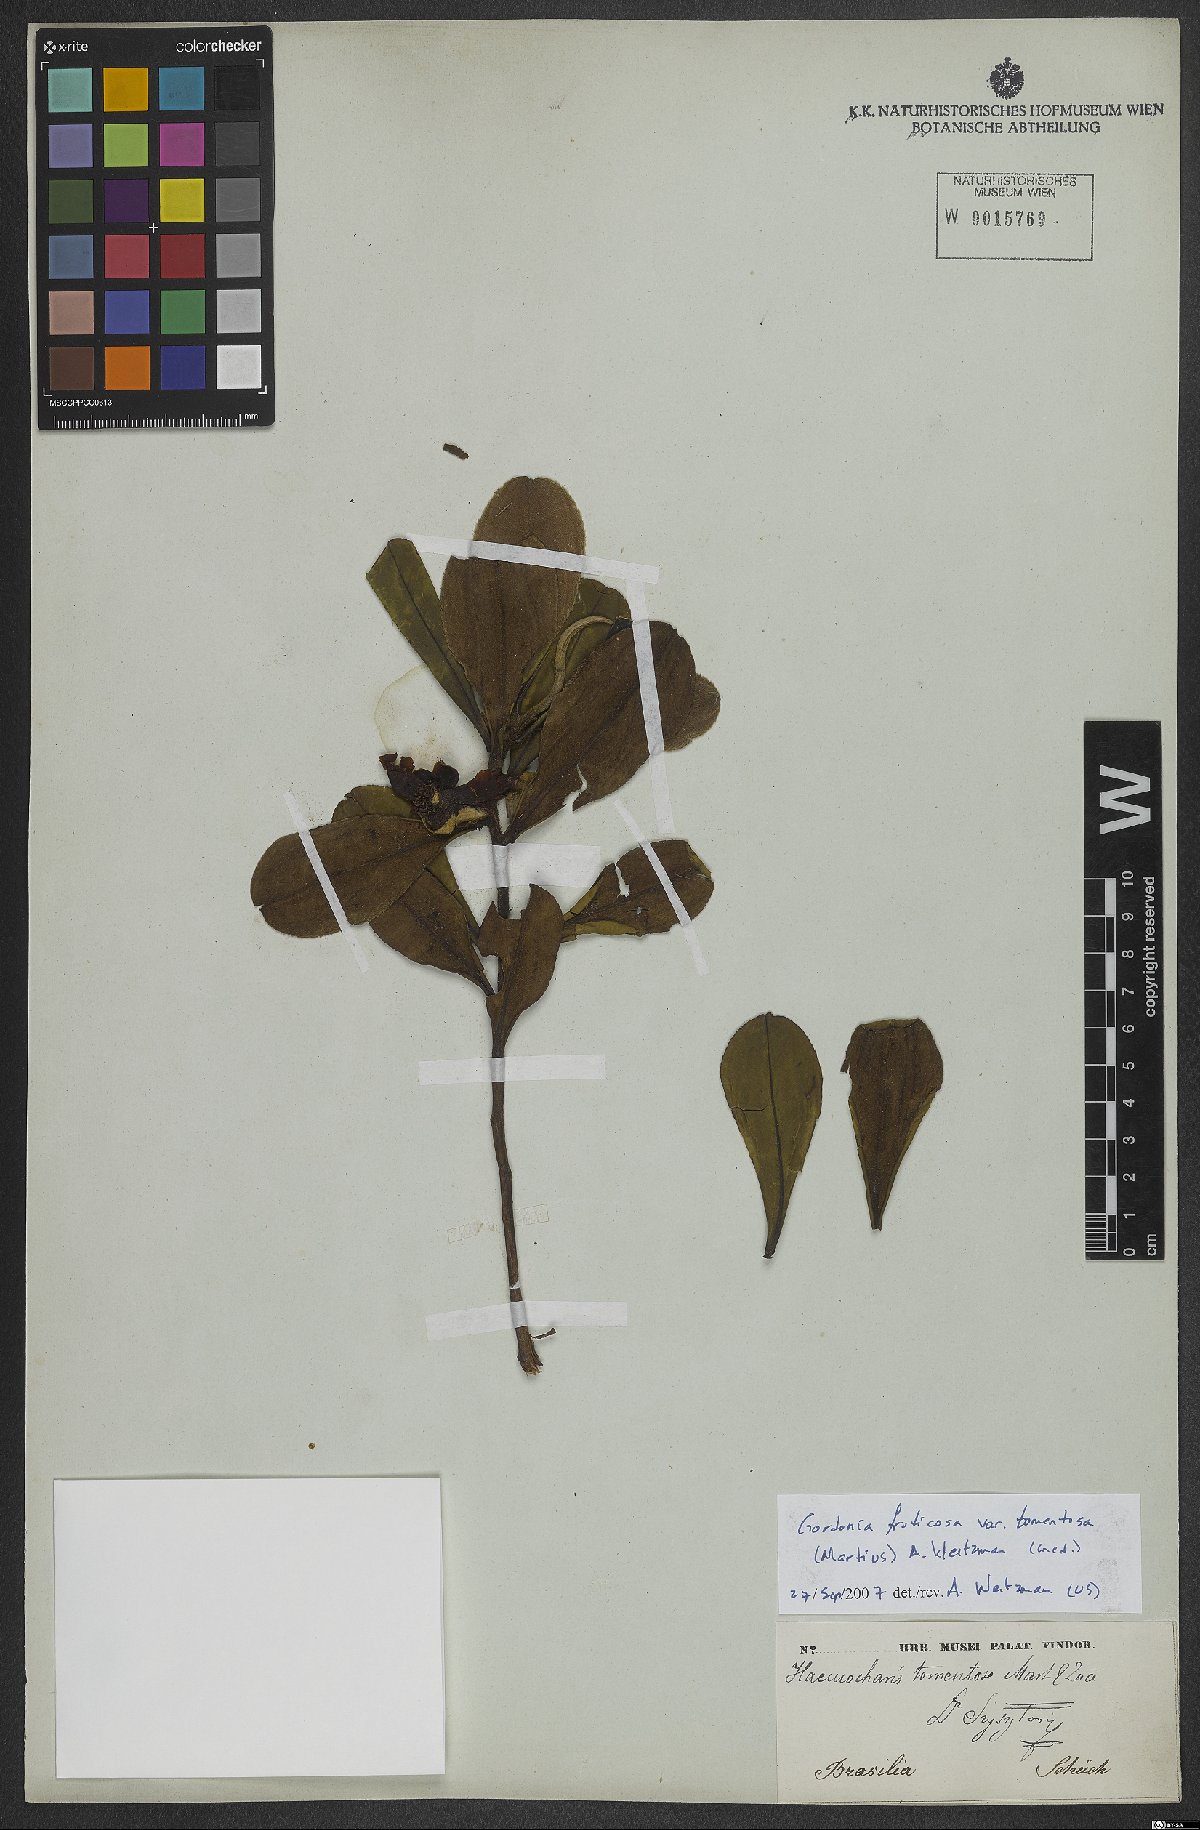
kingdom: Plantae
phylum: Tracheophyta
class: Magnoliopsida
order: Ericales
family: Theaceae
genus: Gordonia
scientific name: Gordonia fruticosa
